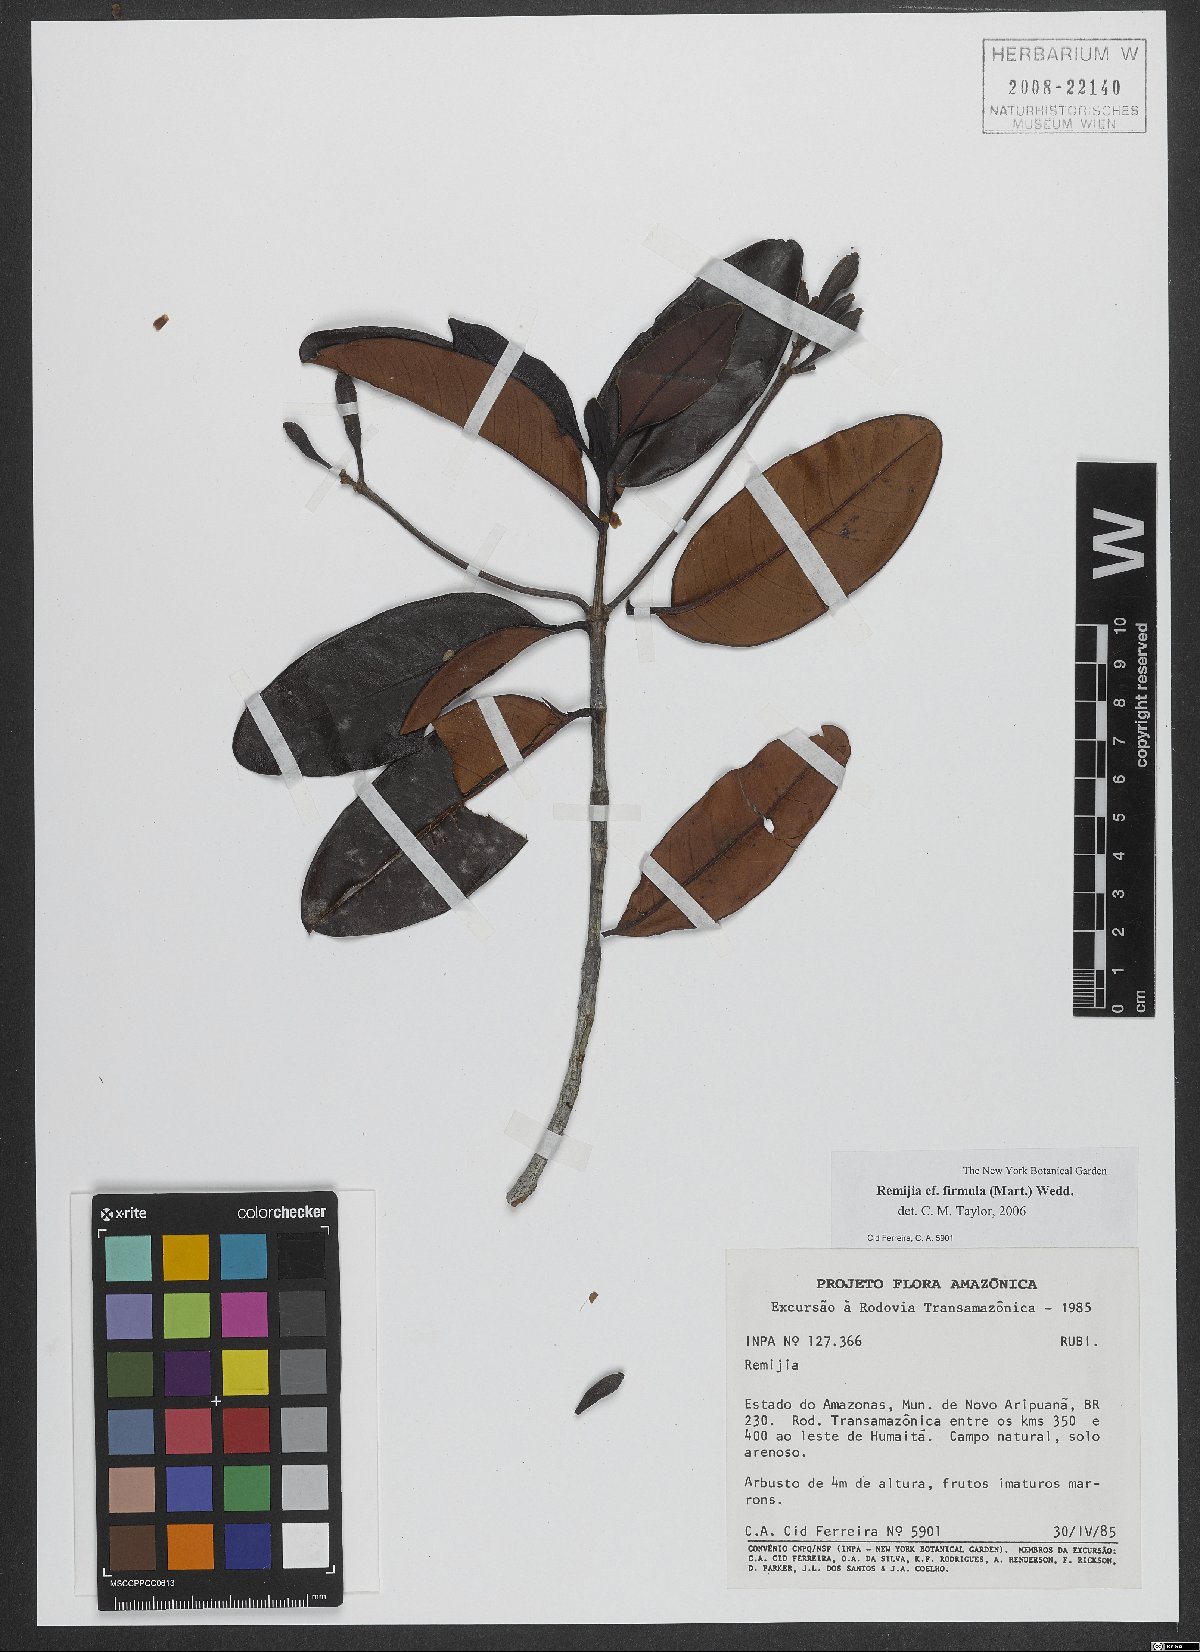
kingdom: Plantae
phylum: Tracheophyta
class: Magnoliopsida
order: Gentianales
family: Rubiaceae
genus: Remijia
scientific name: Remijia firmula
